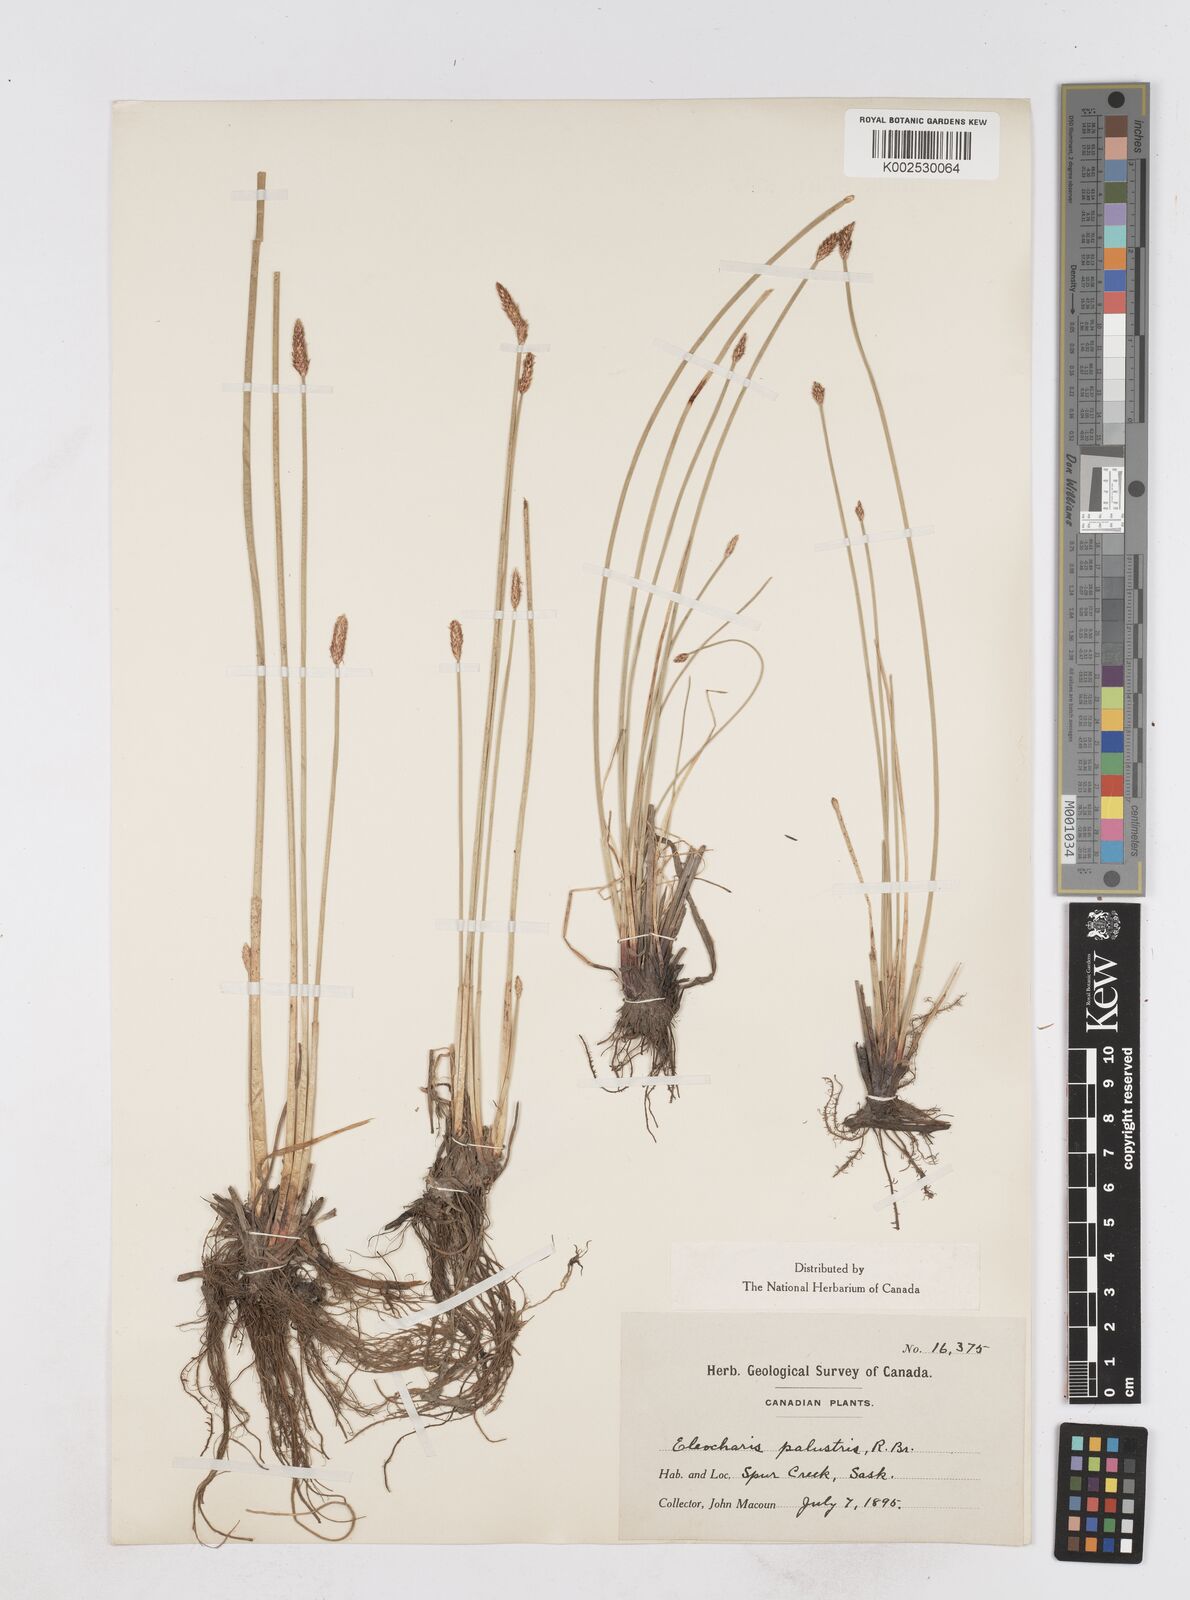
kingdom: Plantae
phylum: Tracheophyta
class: Liliopsida
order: Poales
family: Cyperaceae
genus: Eleocharis
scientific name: Eleocharis palustris
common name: Common spike-rush
